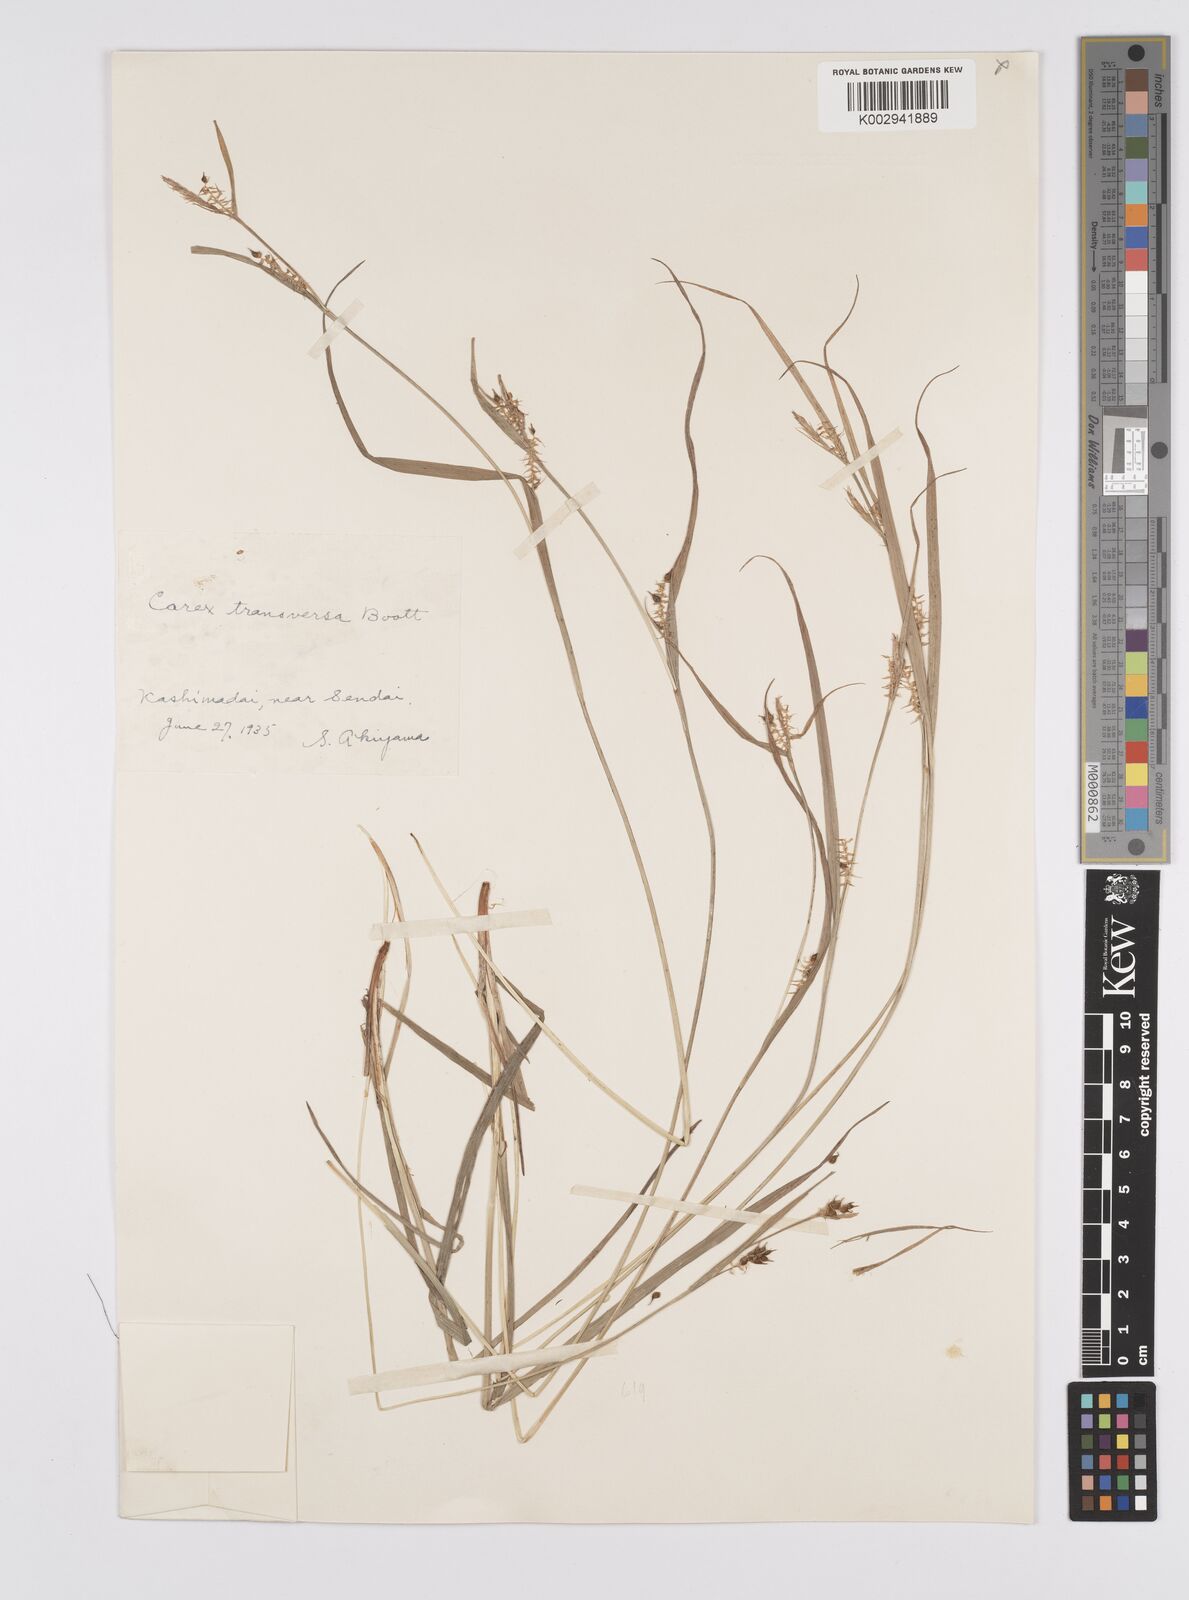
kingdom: Plantae
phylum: Tracheophyta
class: Liliopsida
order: Poales
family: Cyperaceae
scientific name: Cyperaceae
